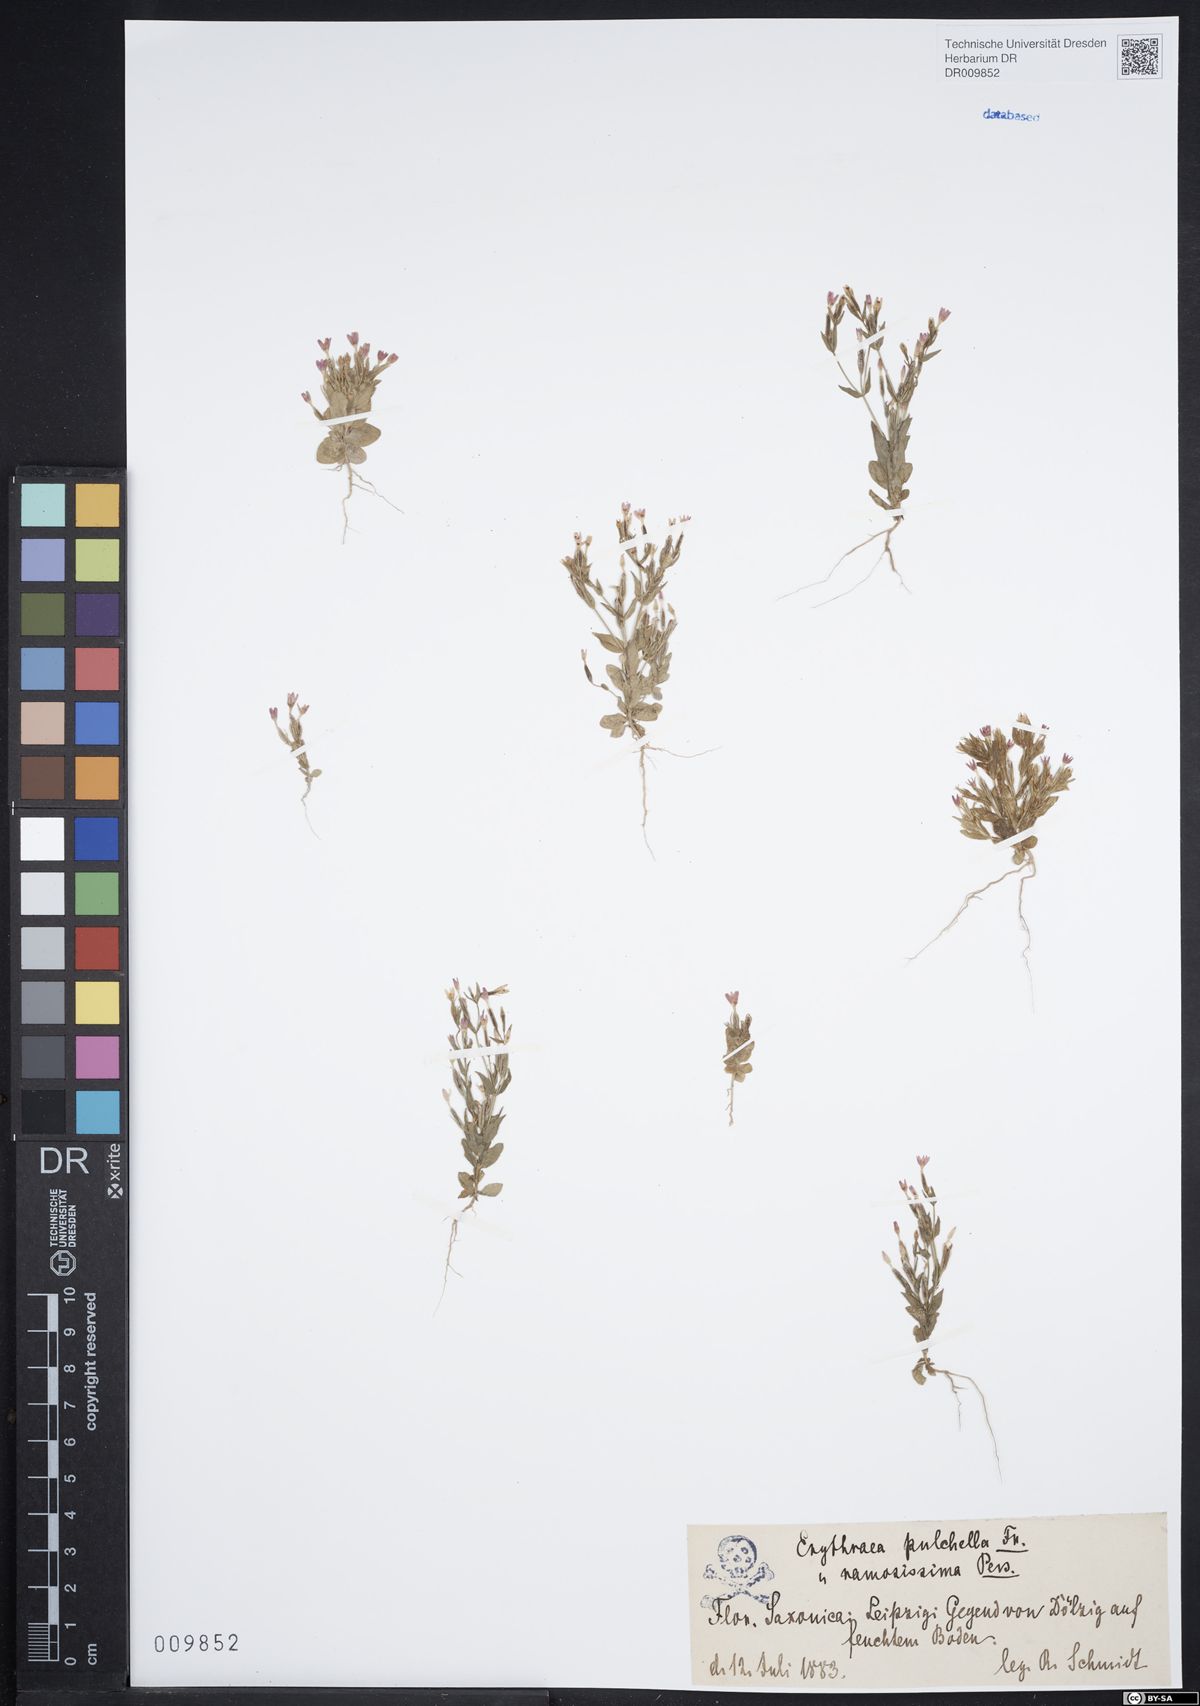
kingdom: Plantae
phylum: Tracheophyta
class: Magnoliopsida
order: Gentianales
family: Gentianaceae
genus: Centaurium
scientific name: Centaurium pulchellum
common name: Lesser centaury
